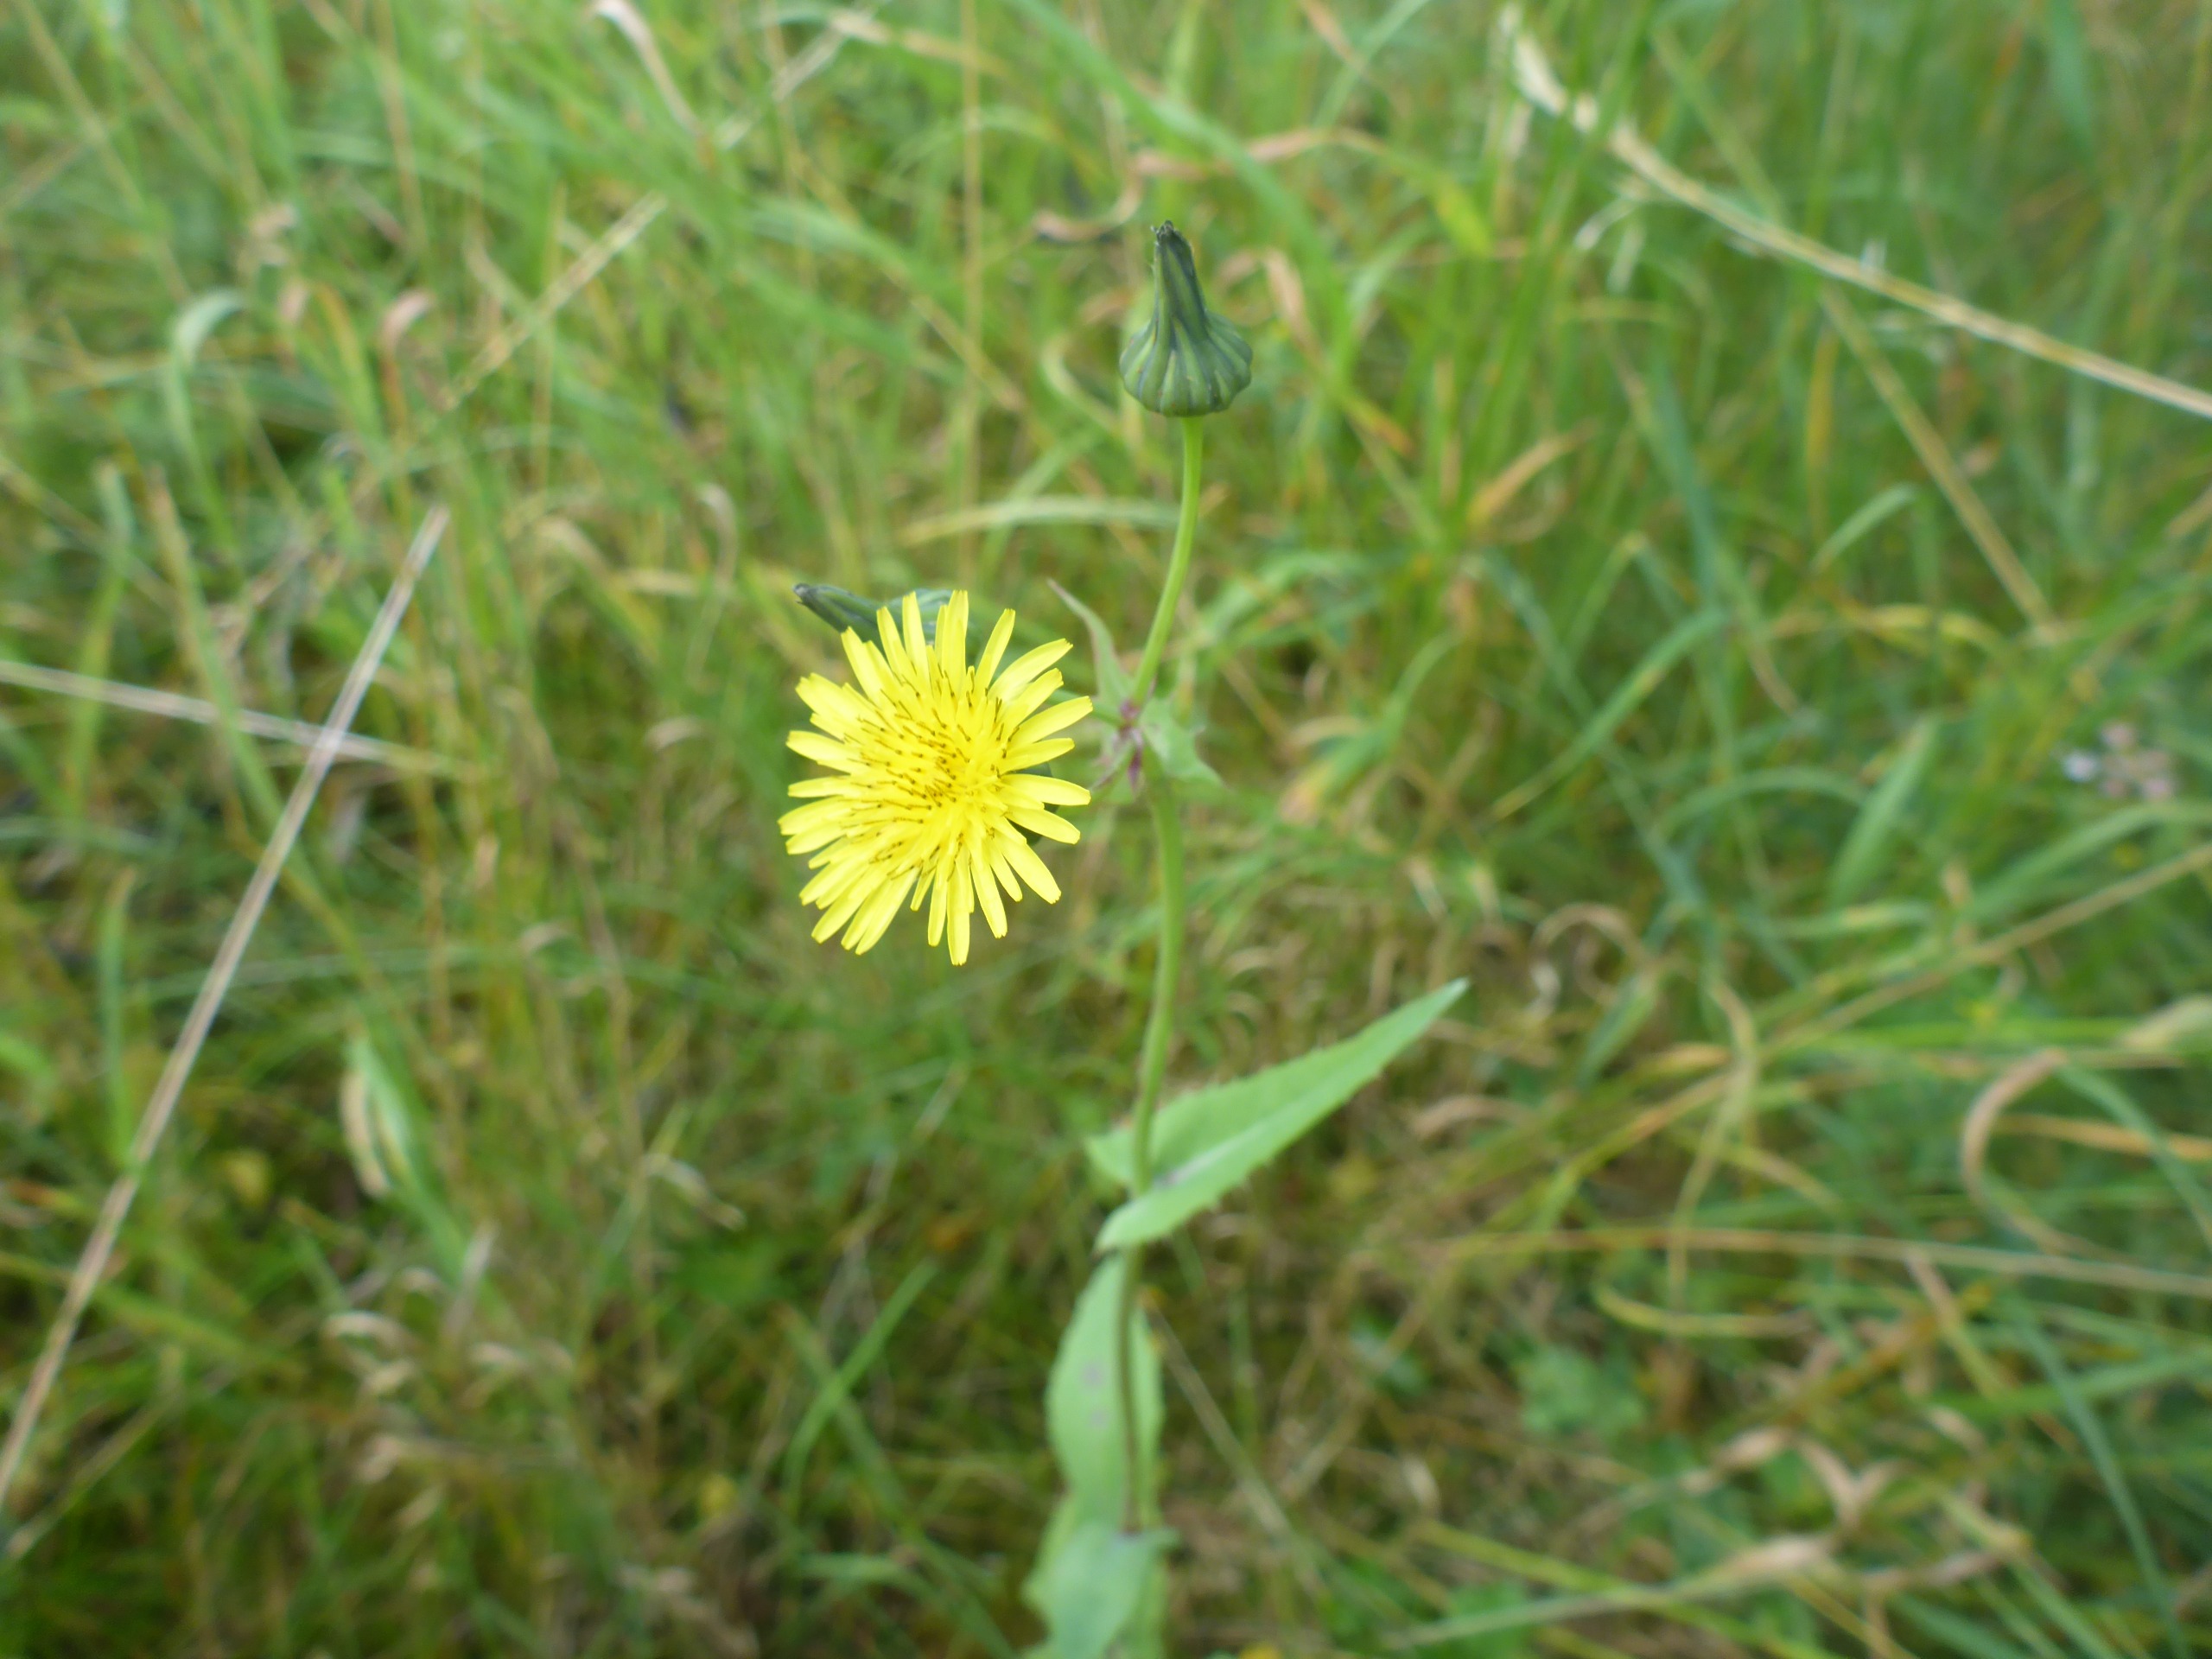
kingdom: Plantae
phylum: Tracheophyta
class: Magnoliopsida
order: Asterales
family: Asteraceae
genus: Sonchus
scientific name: Sonchus oleraceus
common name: Almindelig svinemælk
